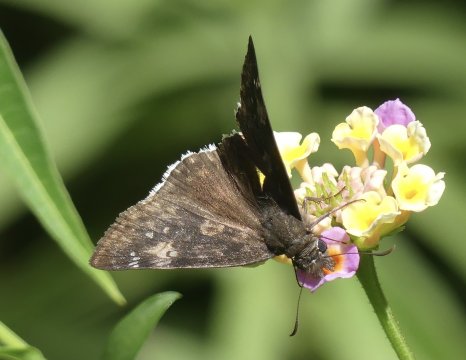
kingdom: Animalia
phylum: Arthropoda
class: Insecta
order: Lepidoptera
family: Hesperiidae
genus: Erynnis
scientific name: Erynnis funeralis
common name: Funereal Duskywing
